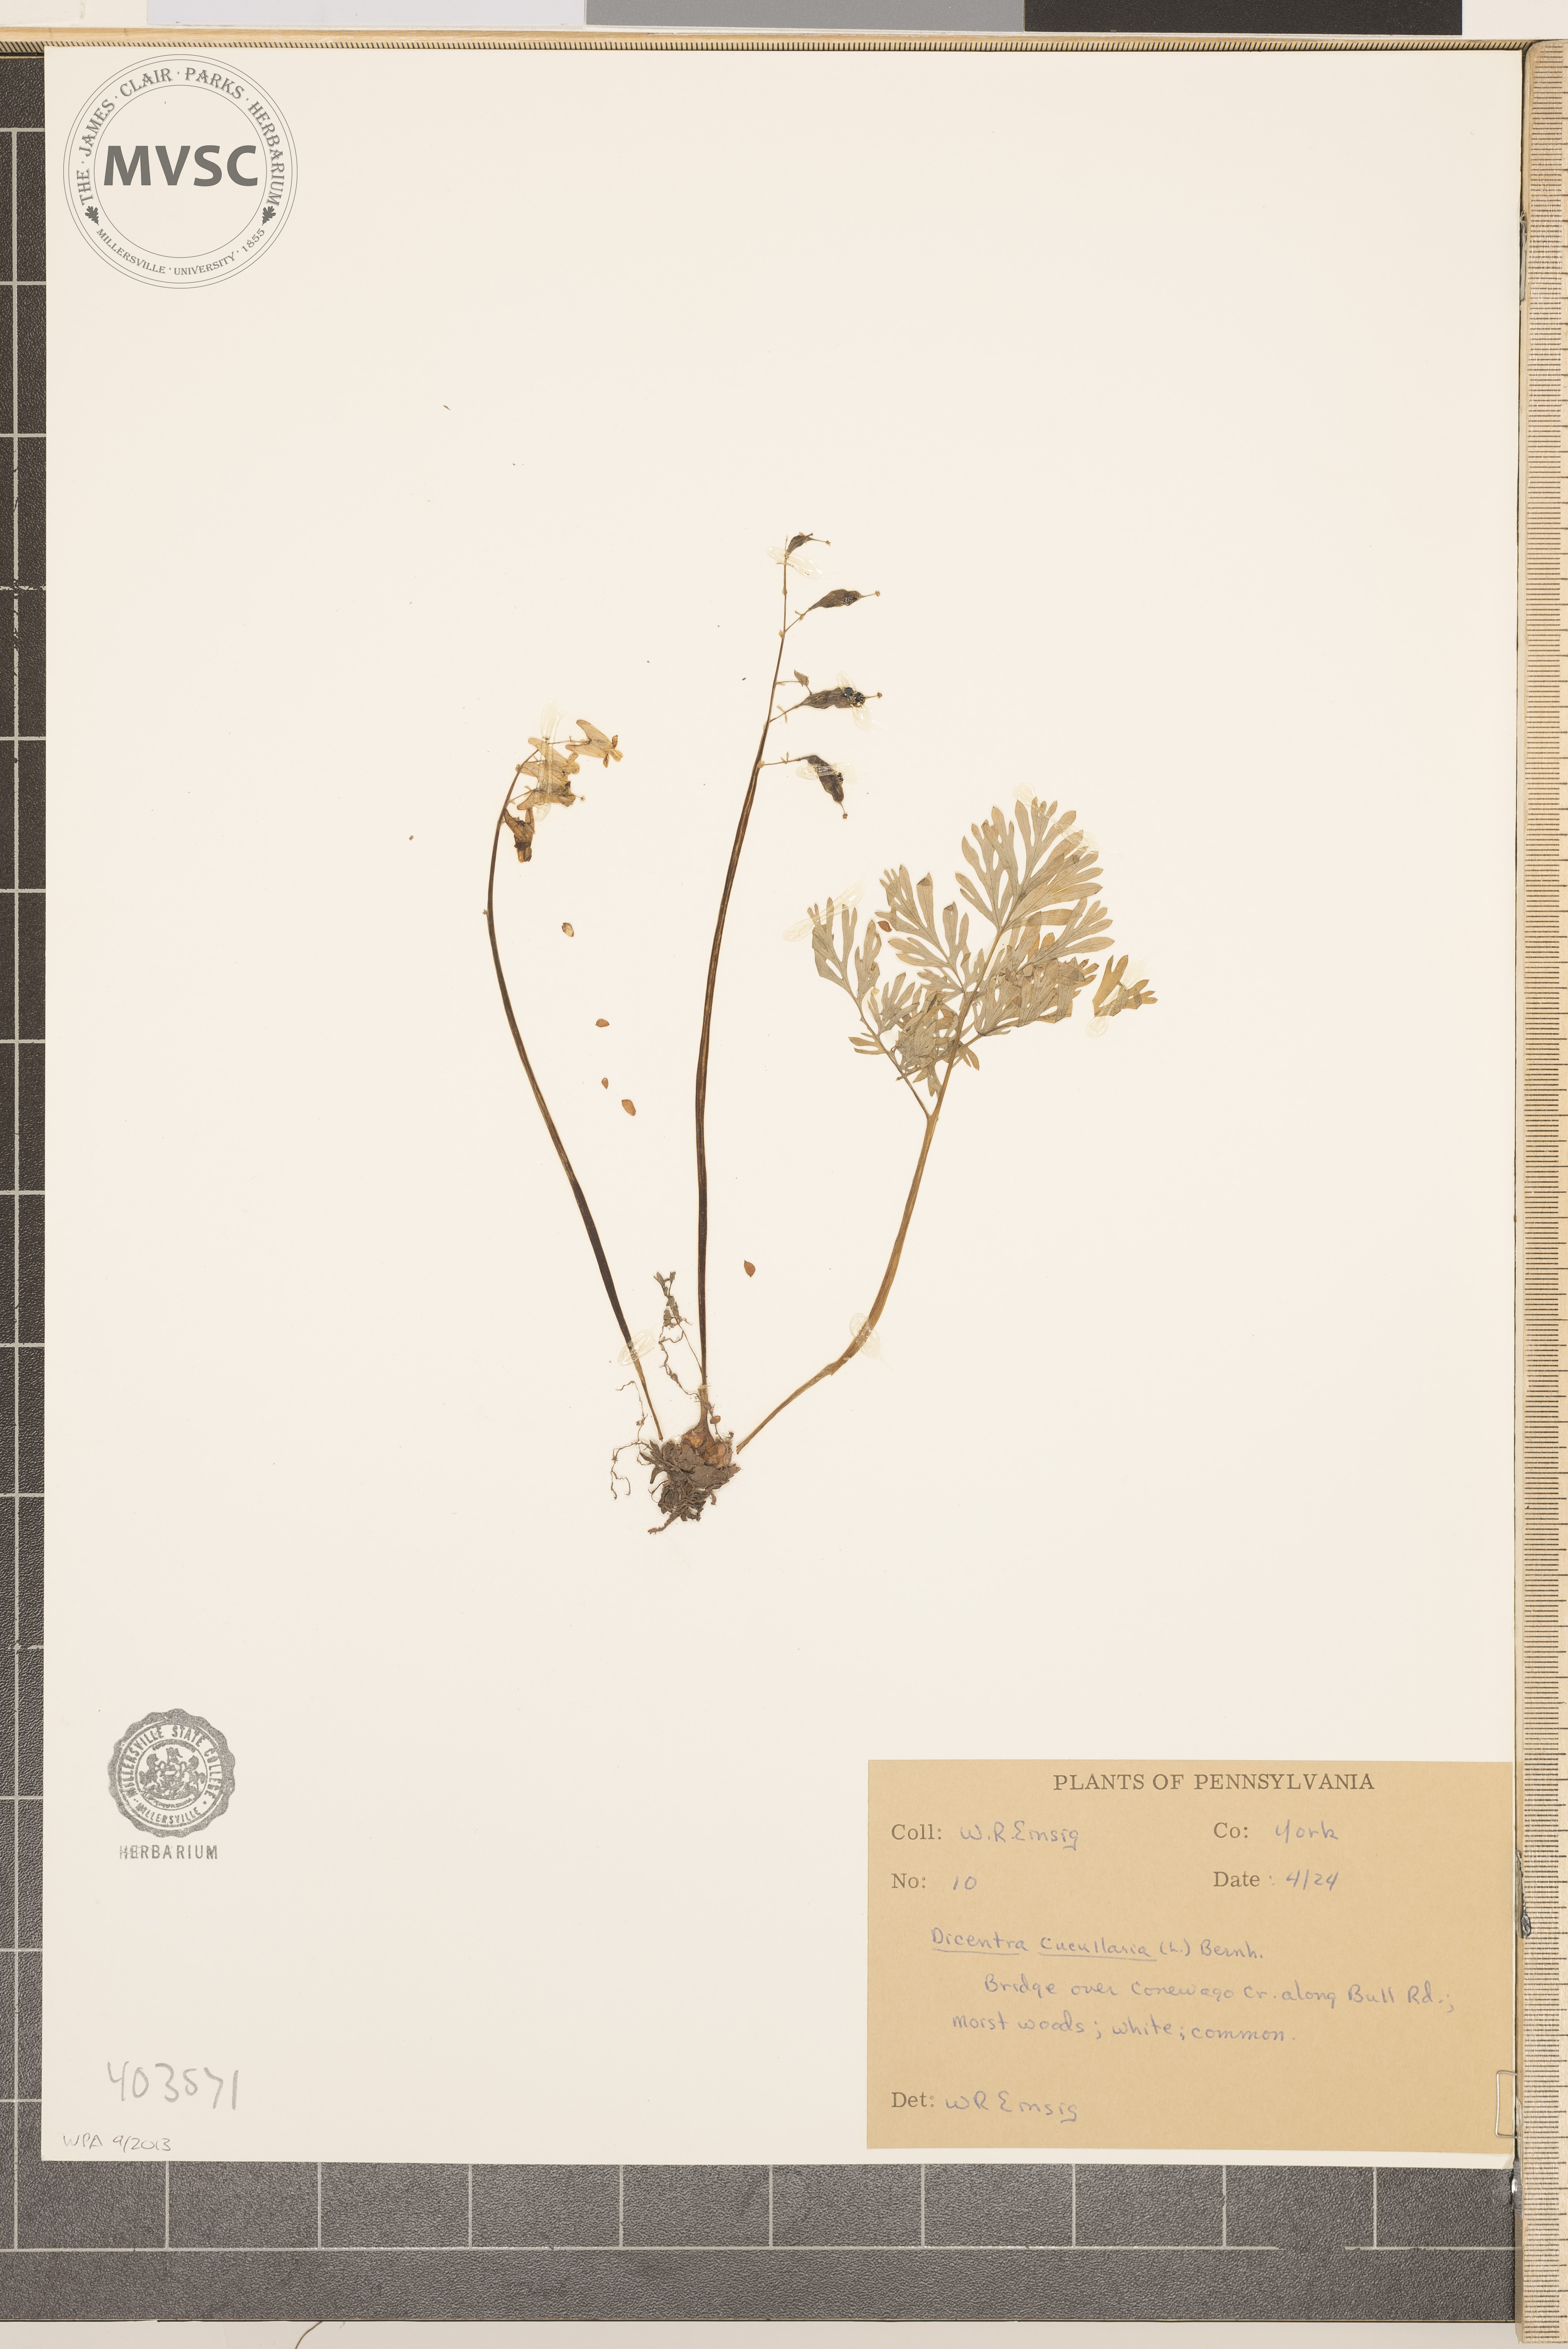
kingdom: Plantae
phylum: Tracheophyta
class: Magnoliopsida
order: Ranunculales
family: Papaveraceae
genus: Dicentra
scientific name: Dicentra cucullaria
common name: Dutchman's breeches
